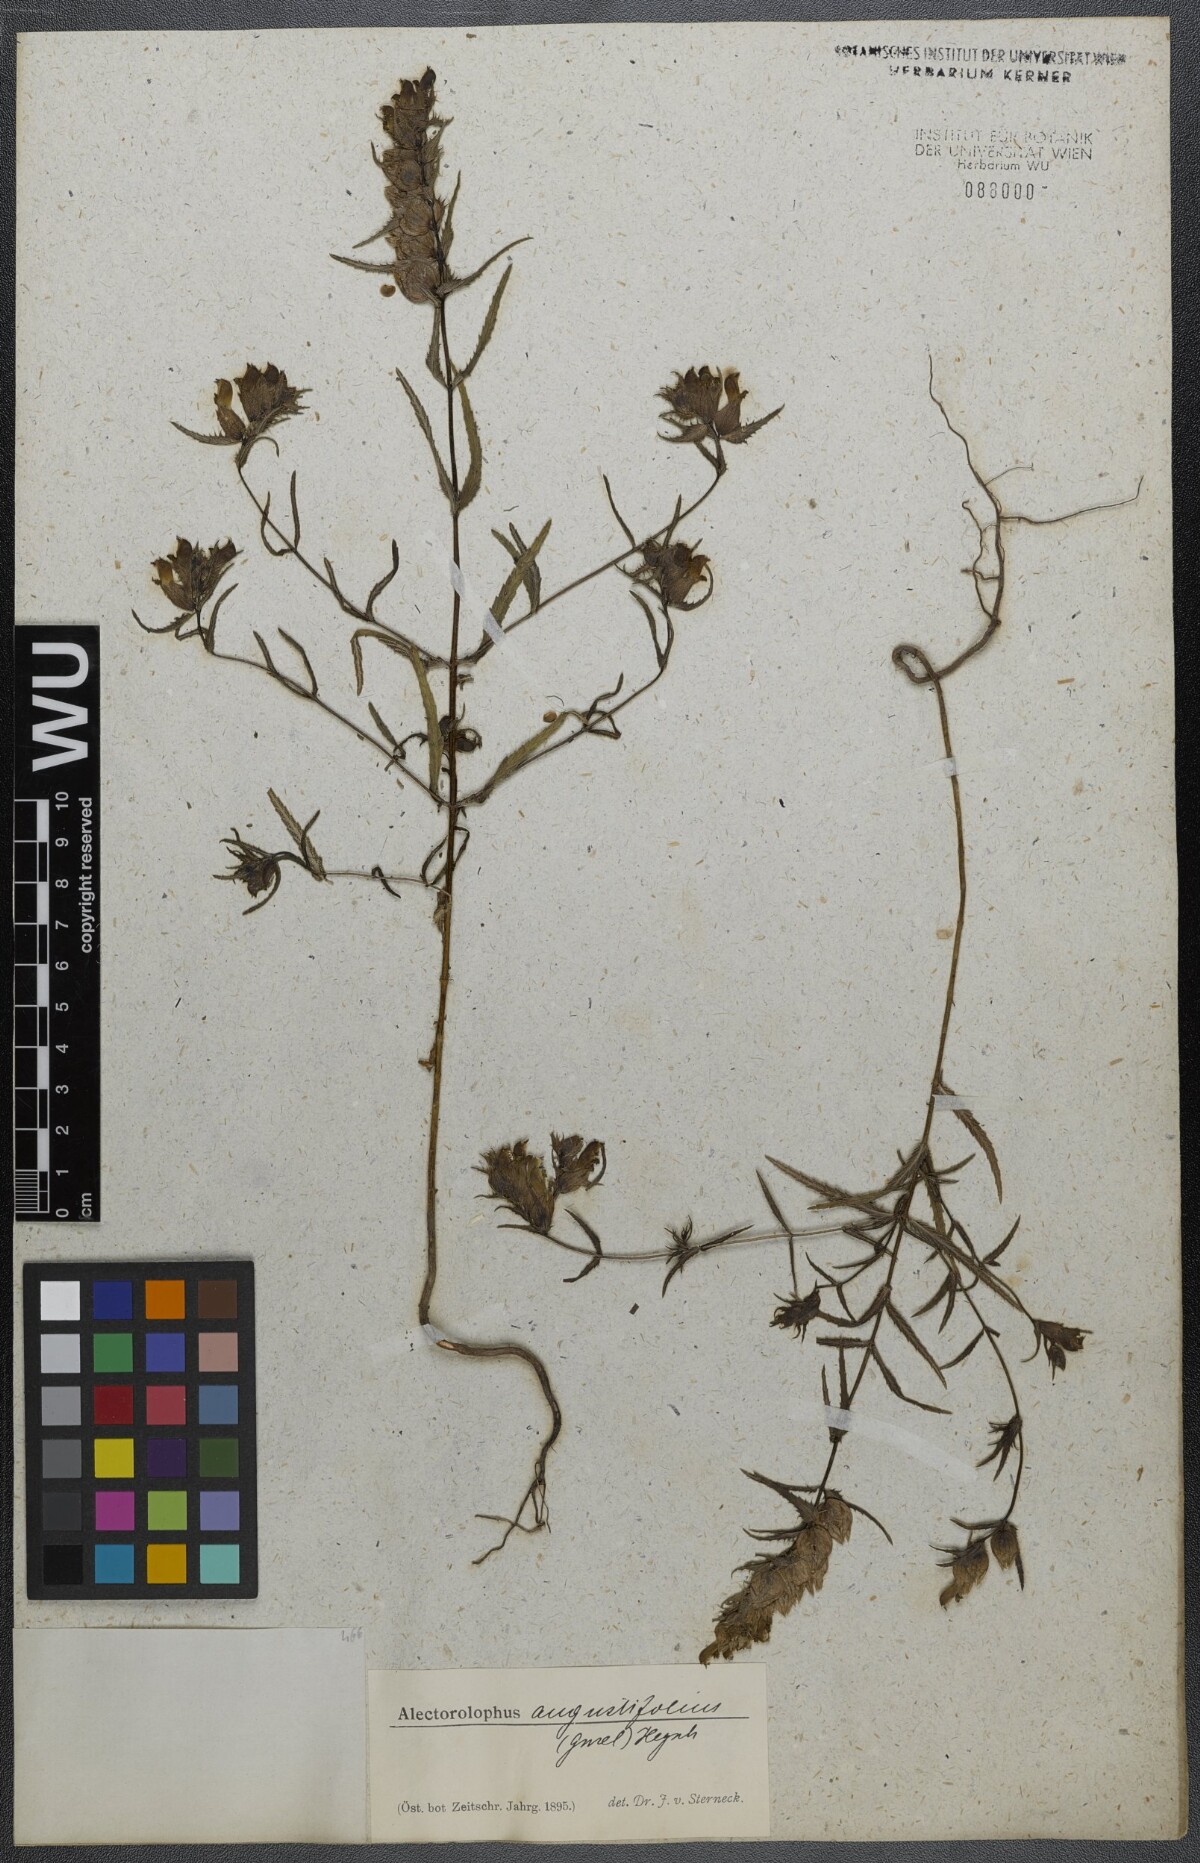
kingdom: Plantae
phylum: Tracheophyta
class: Magnoliopsida
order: Lamiales
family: Orobanchaceae
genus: Rhinanthus
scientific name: Rhinanthus
